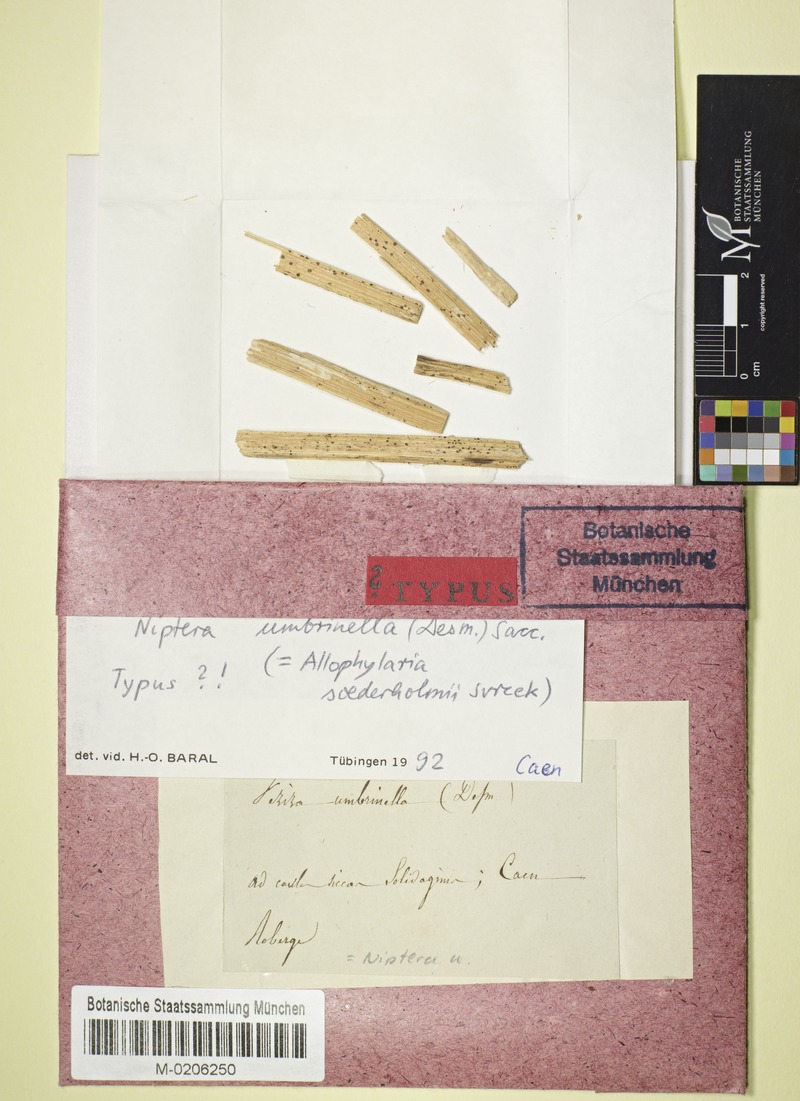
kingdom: Fungi
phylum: Ascomycota
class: Leotiomycetes
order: Helotiales
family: Pezizellaceae
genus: Micropeziza
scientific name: Micropeziza umbrinella
